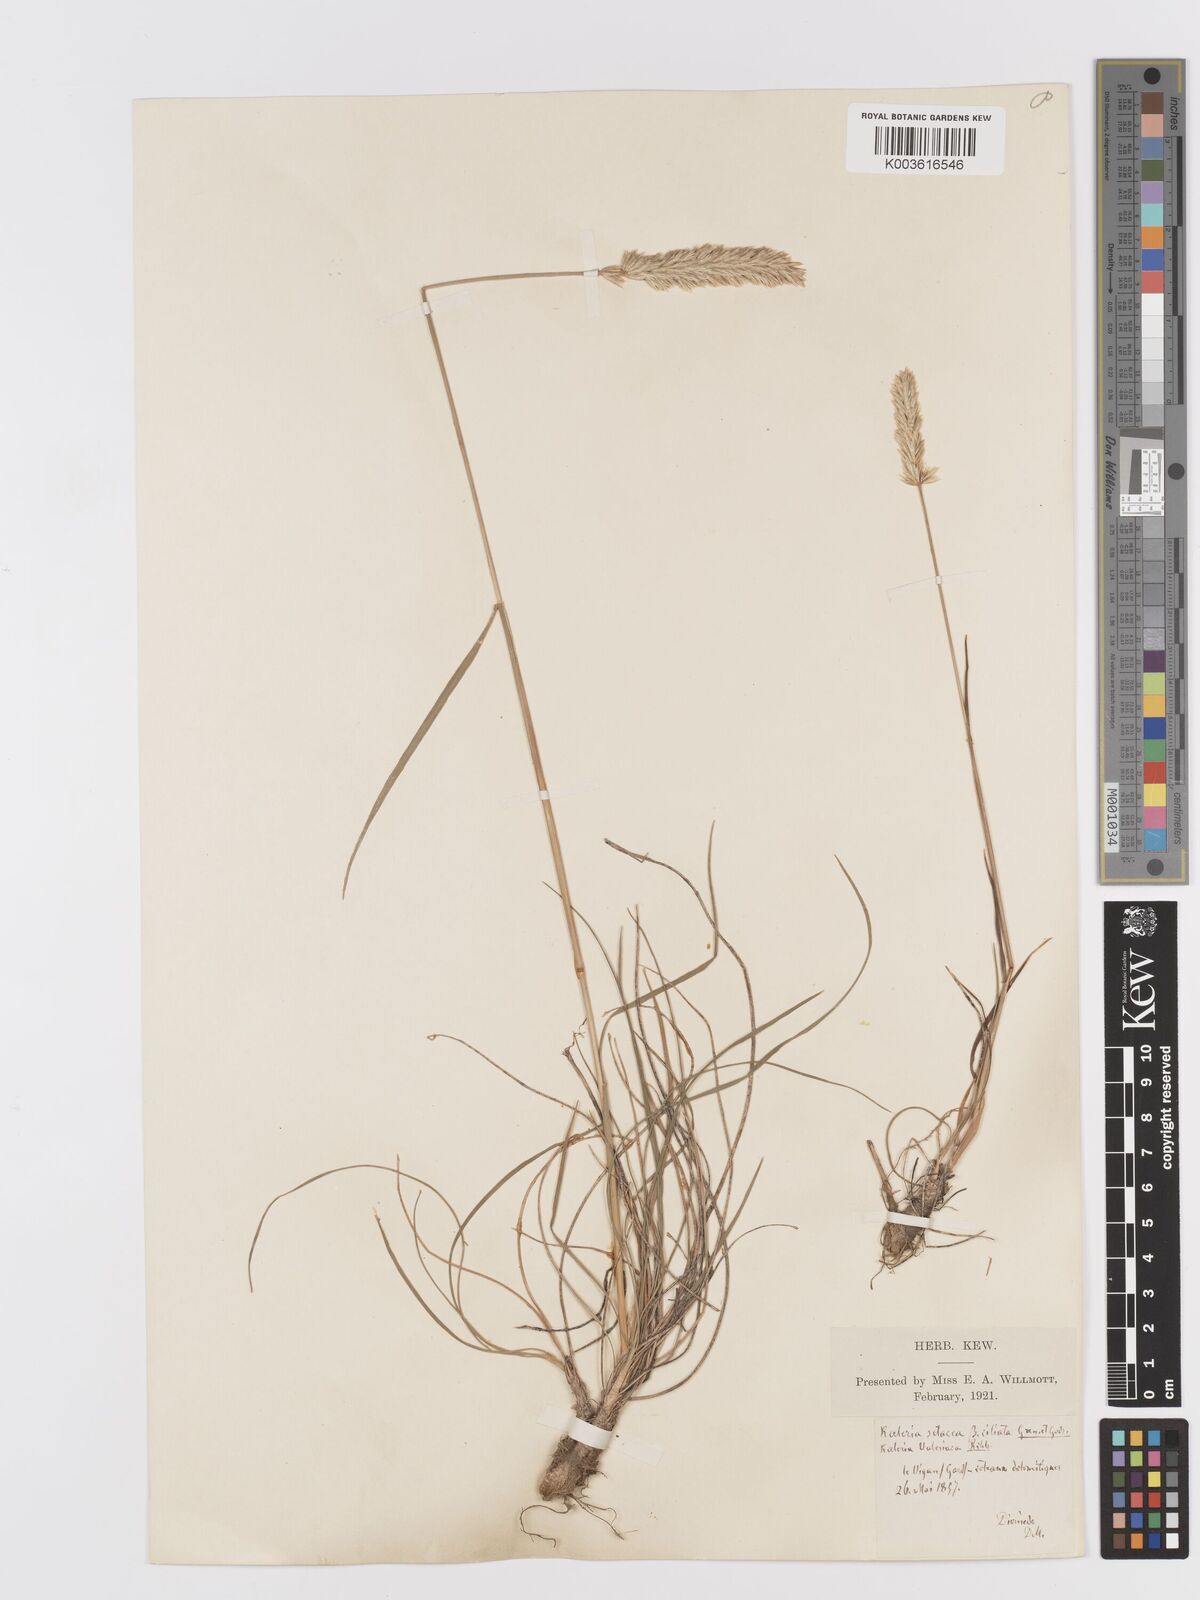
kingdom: Plantae
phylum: Tracheophyta
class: Liliopsida
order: Poales
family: Poaceae
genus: Koeleria
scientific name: Koeleria vallesiana
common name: Somerset hair-grass
